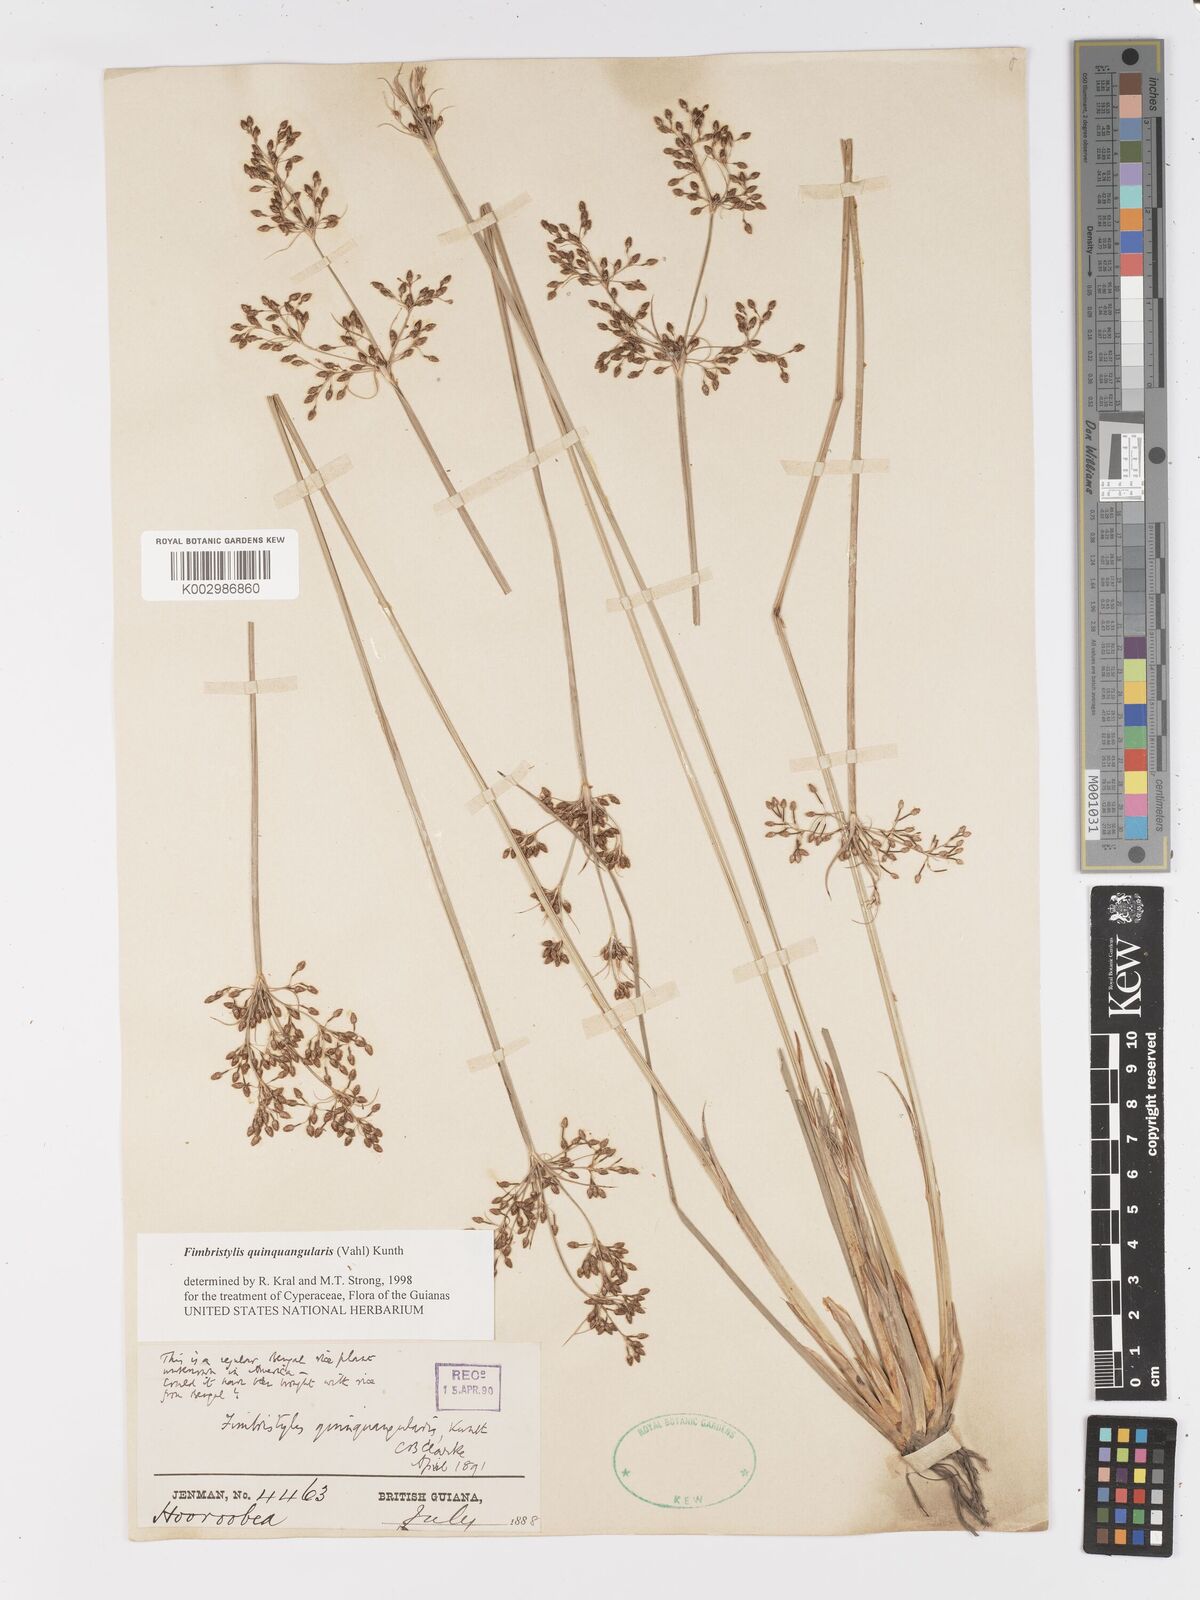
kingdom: Plantae
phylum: Tracheophyta
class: Liliopsida
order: Poales
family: Cyperaceae
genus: Fimbristylis
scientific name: Fimbristylis quinquangularis
